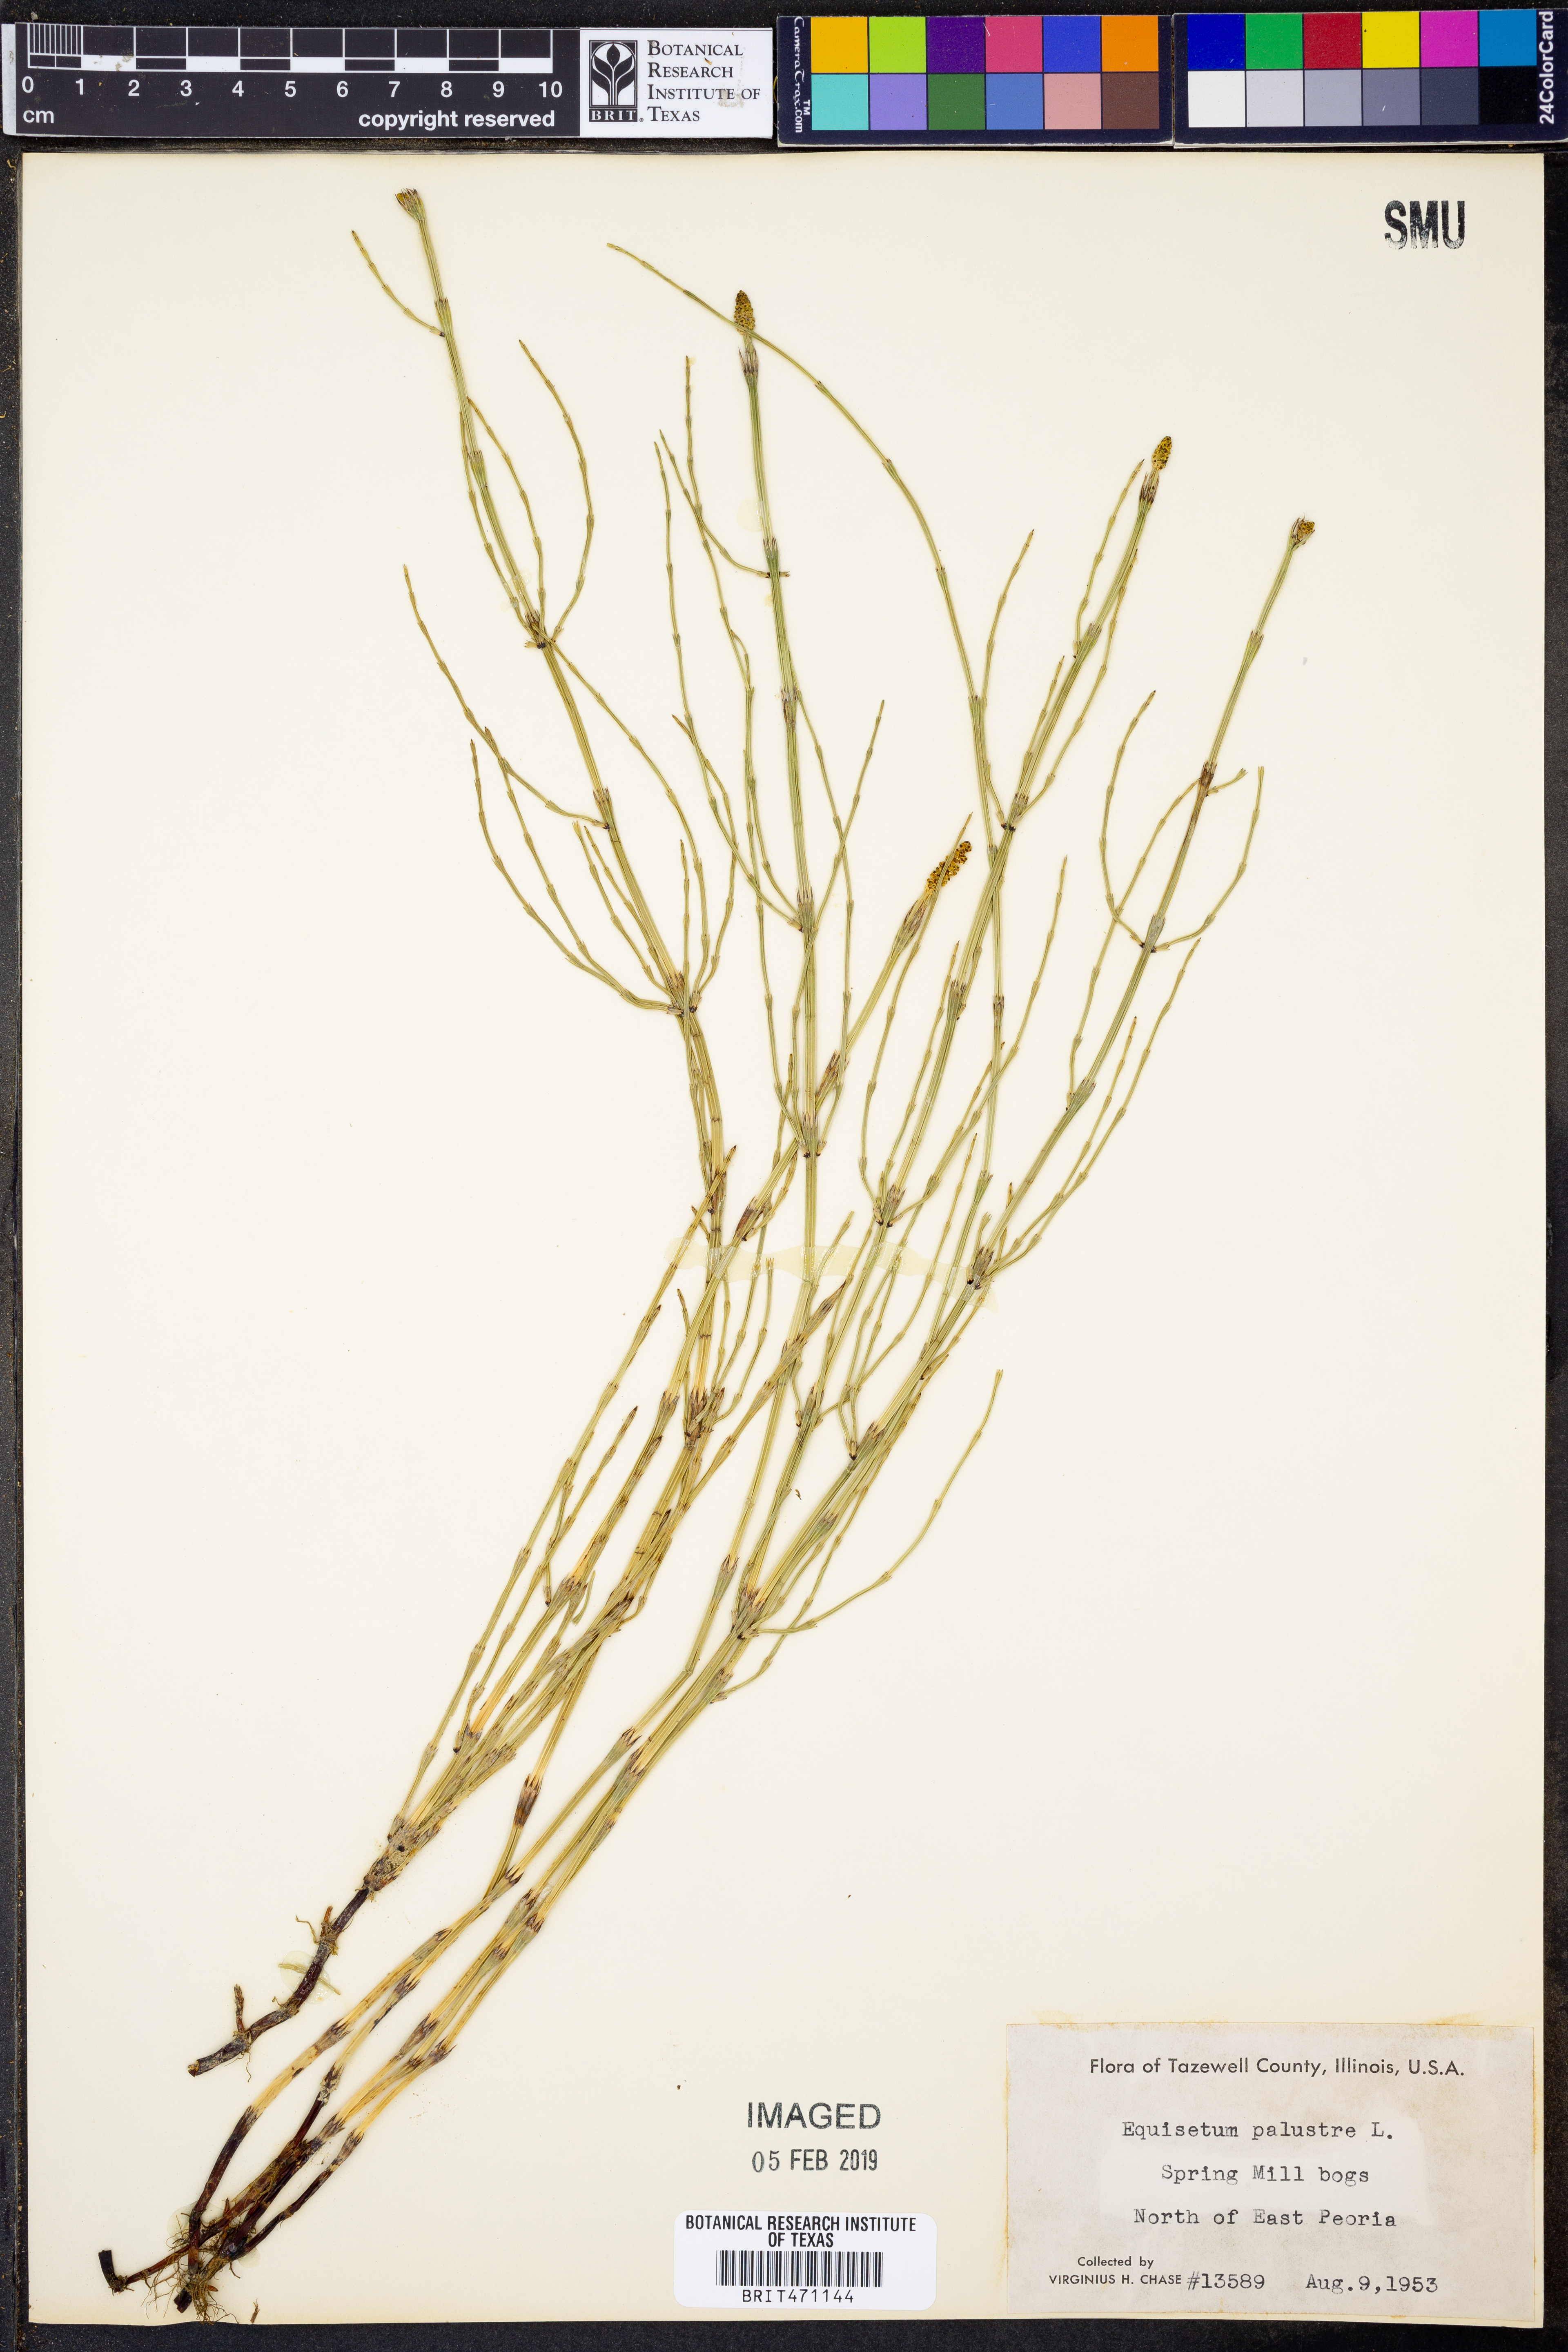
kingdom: Plantae
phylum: Tracheophyta
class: Polypodiopsida
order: Equisetales
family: Equisetaceae
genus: Equisetum
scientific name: Equisetum palustre
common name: Marsh horsetail
